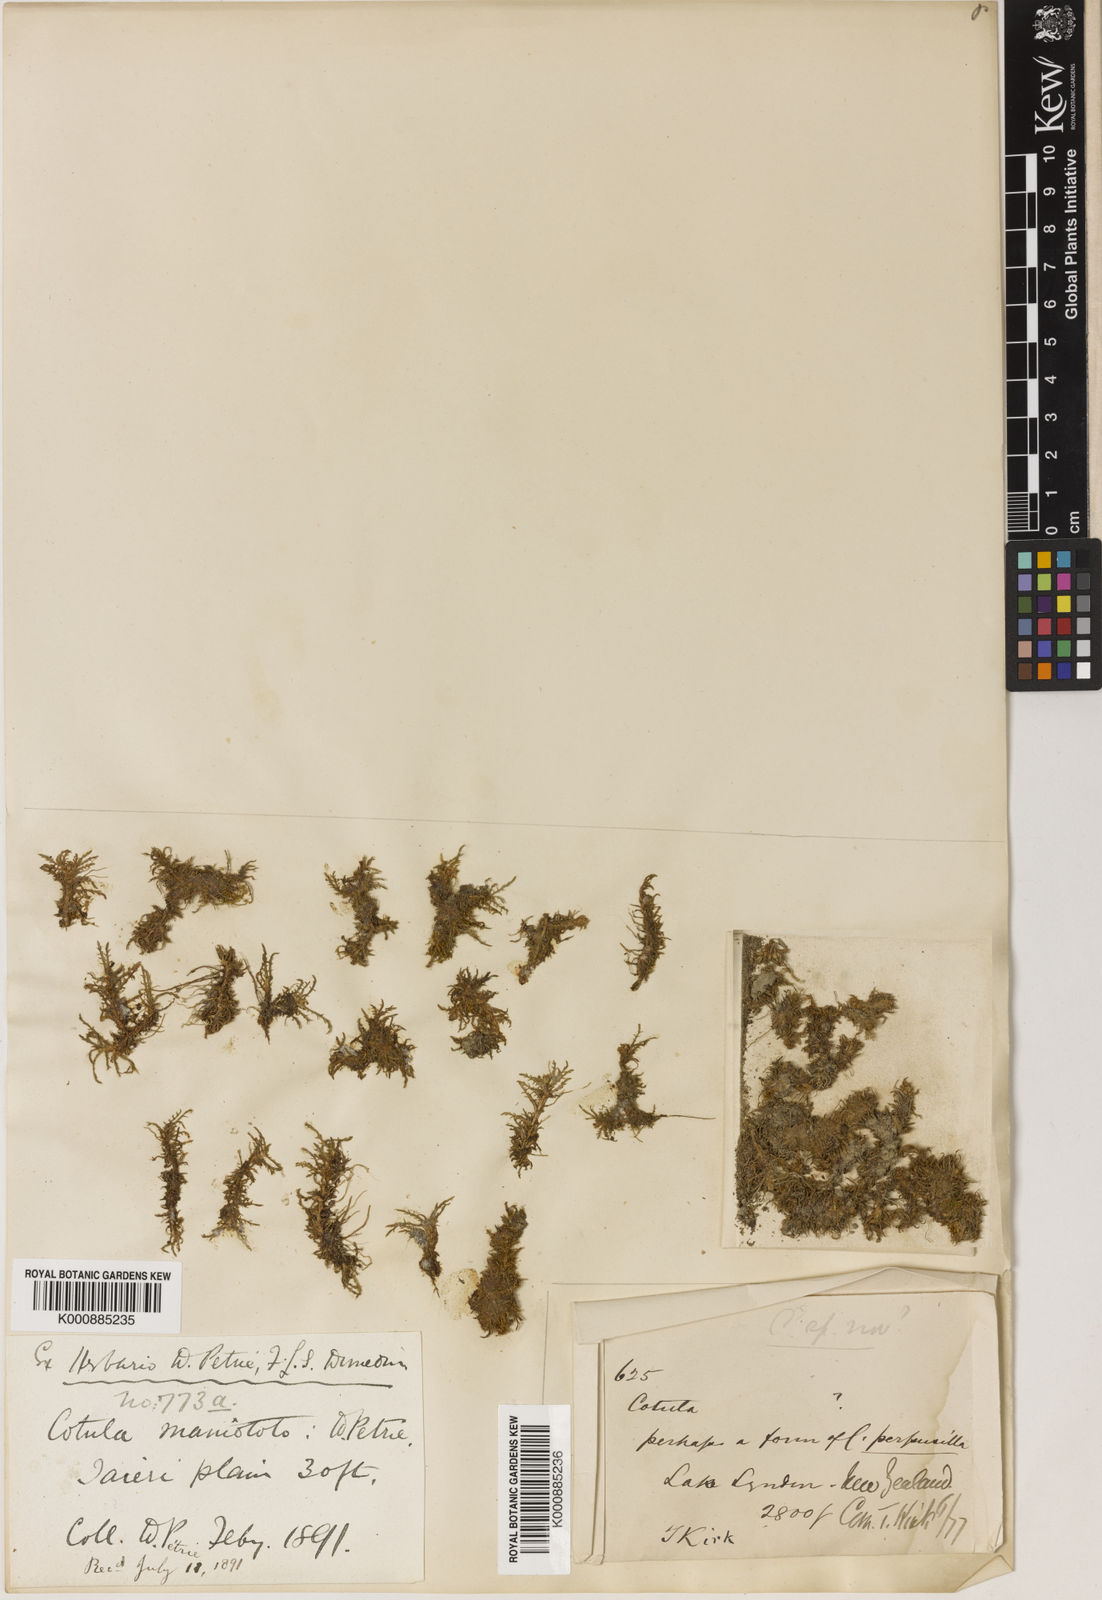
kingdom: Plantae
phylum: Tracheophyta
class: Magnoliopsida
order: Asterales
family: Asteraceae
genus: Leptinella
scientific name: Leptinella
